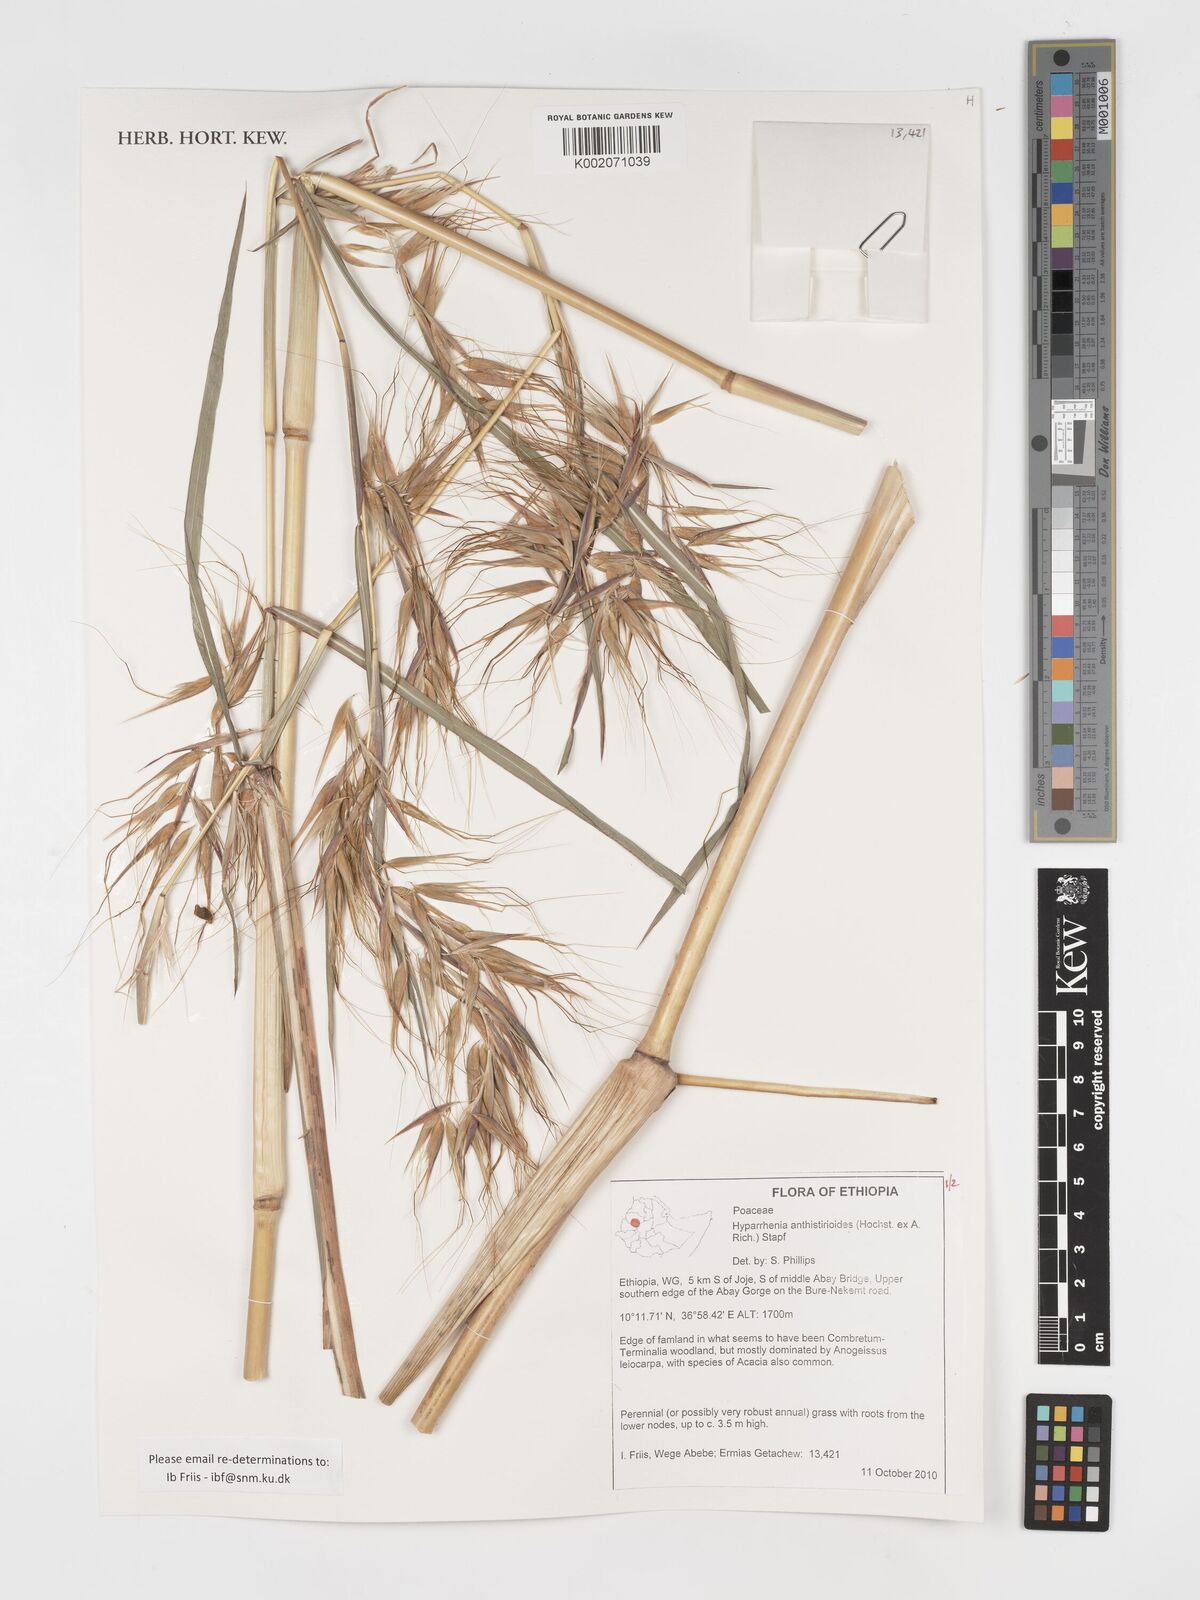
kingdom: Plantae
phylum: Tracheophyta
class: Liliopsida
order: Poales
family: Poaceae
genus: Hyparrhenia
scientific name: Hyparrhenia anthistirioides
